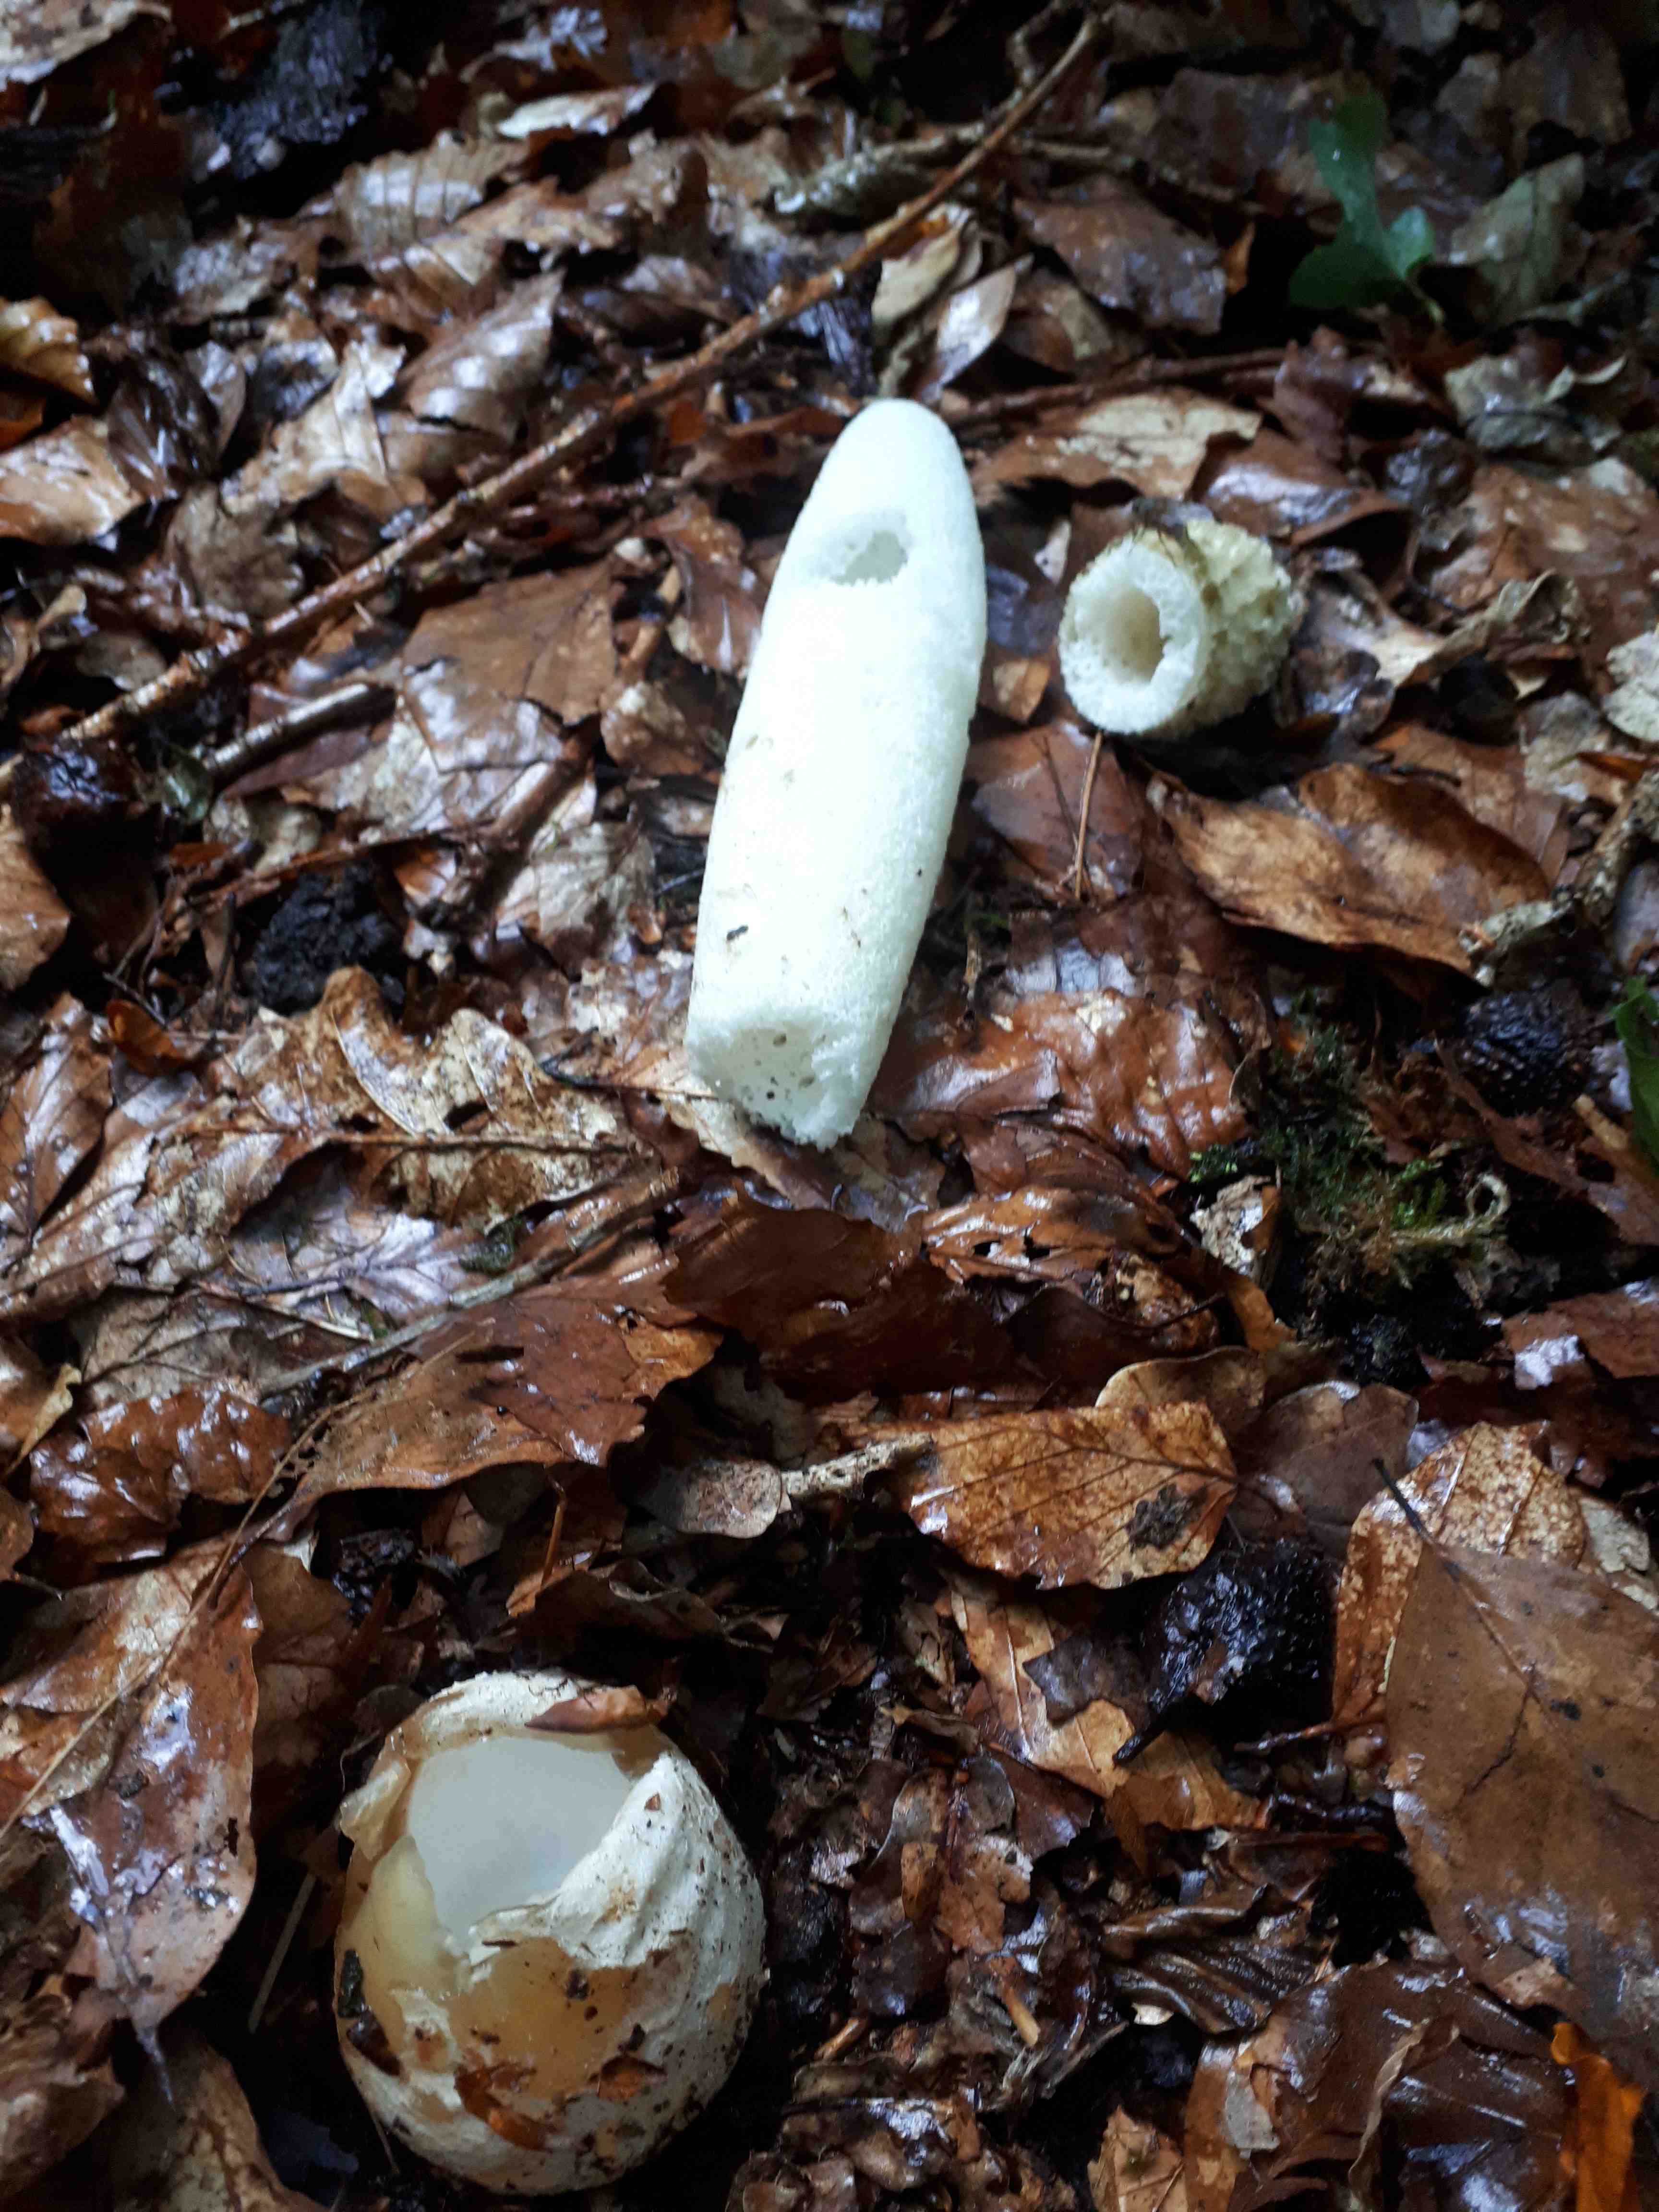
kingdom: Fungi
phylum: Basidiomycota
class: Agaricomycetes
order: Phallales
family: Phallaceae
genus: Phallus
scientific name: Phallus impudicus
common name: almindelig stinksvamp
